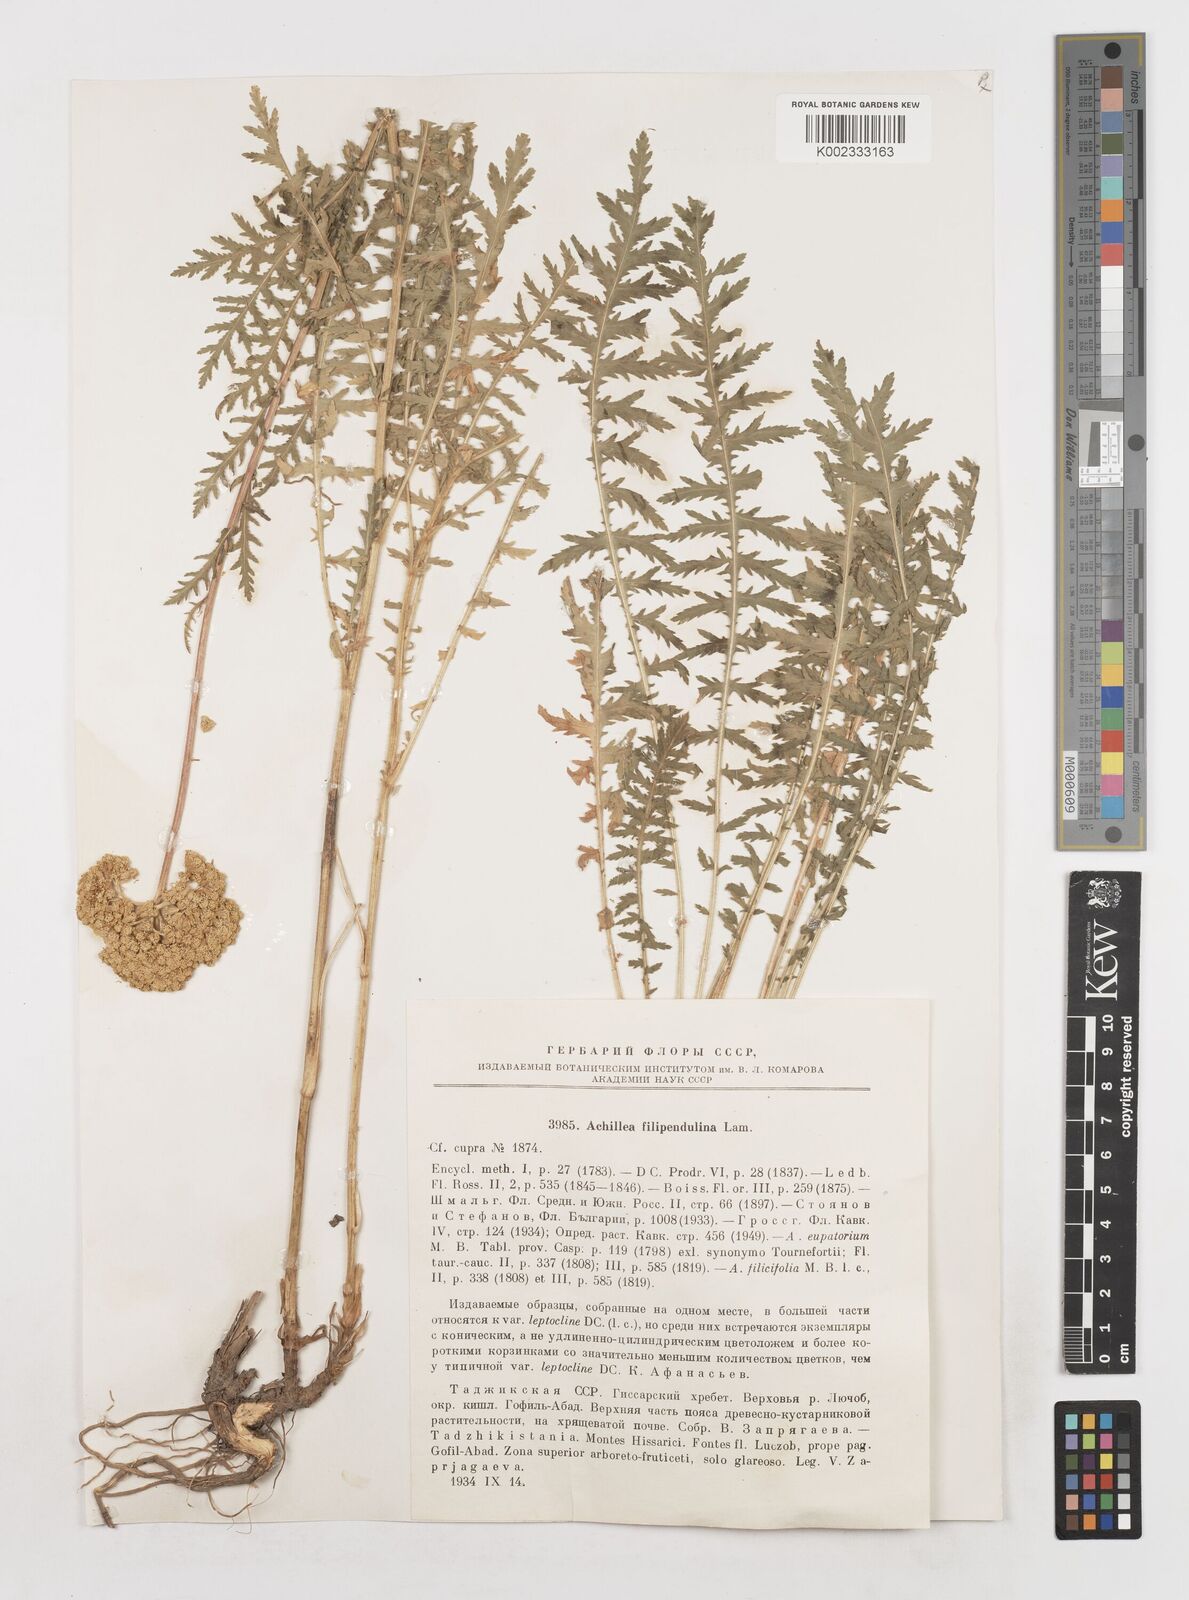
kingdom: Plantae
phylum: Tracheophyta
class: Magnoliopsida
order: Asterales
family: Asteraceae
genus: Achillea
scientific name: Achillea filipendulina
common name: Fernleaf yarrow
